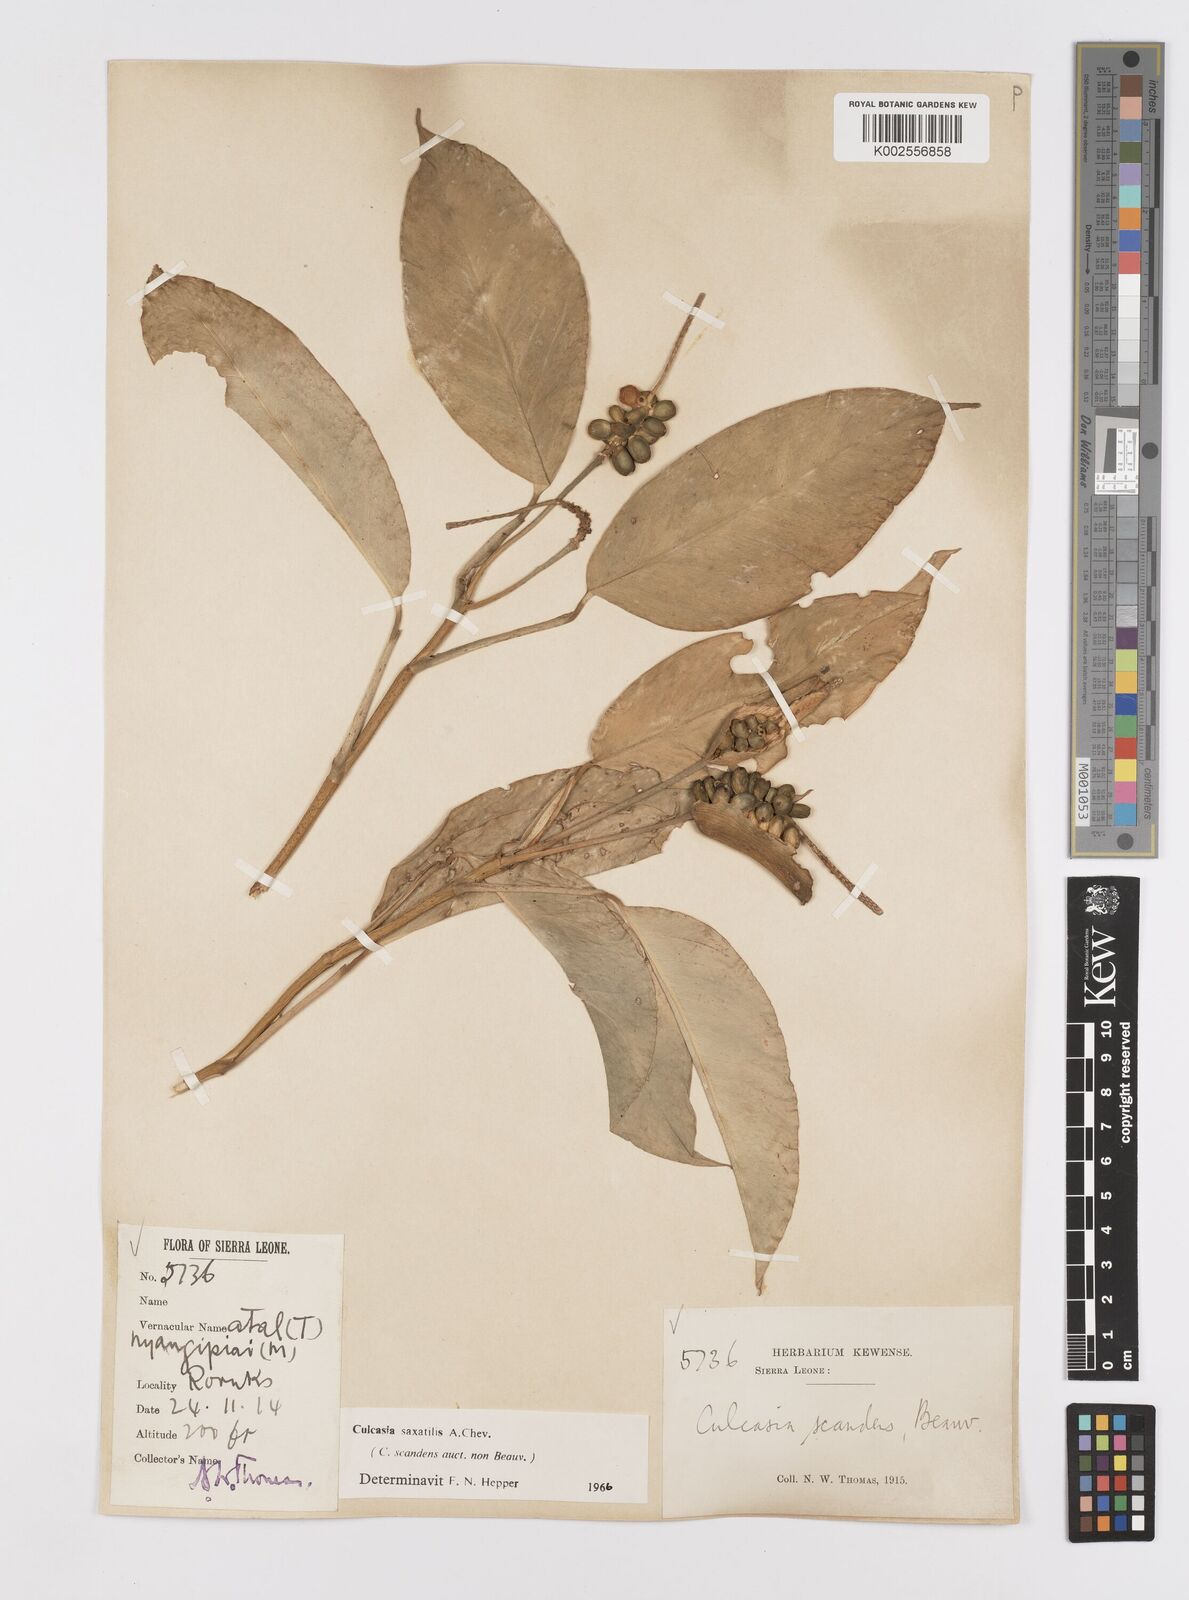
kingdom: Plantae
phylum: Tracheophyta
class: Liliopsida
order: Alismatales
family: Araceae
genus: Culcasia
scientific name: Culcasia scandens
